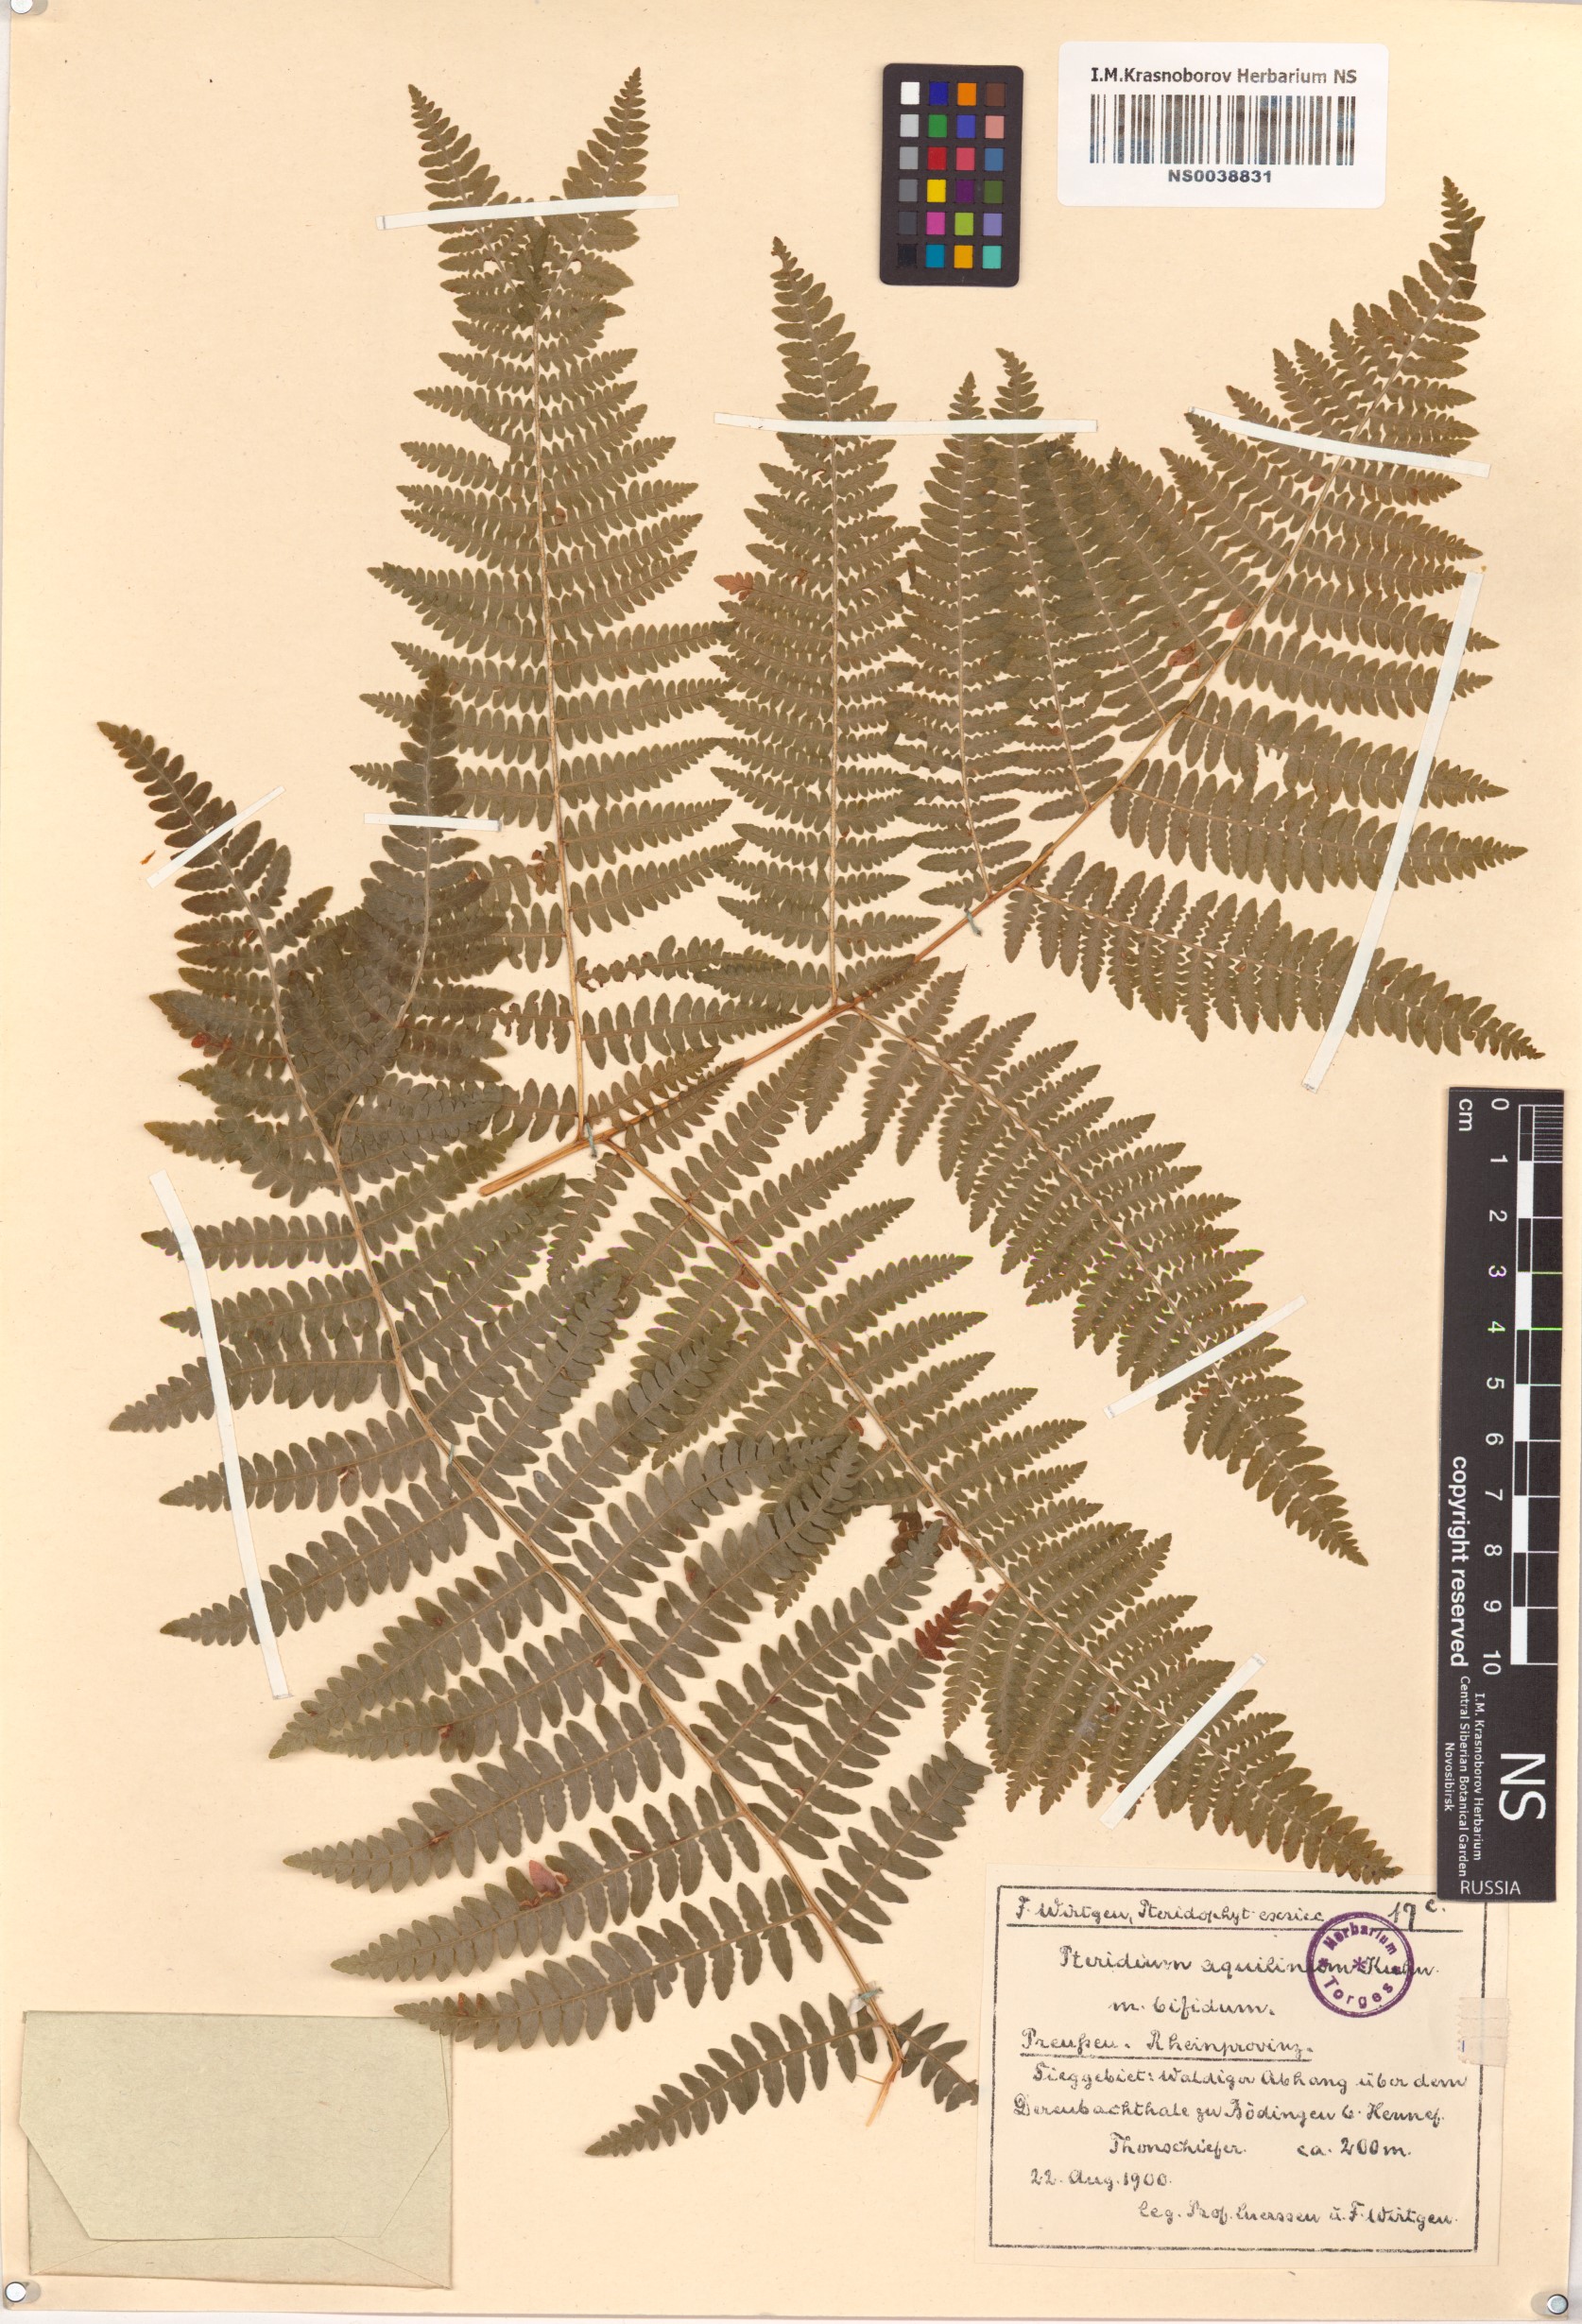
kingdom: Plantae
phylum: Tracheophyta
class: Polypodiopsida
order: Polypodiales
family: Dennstaedtiaceae
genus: Pteridium
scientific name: Pteridium aquilinum
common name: Bracken
